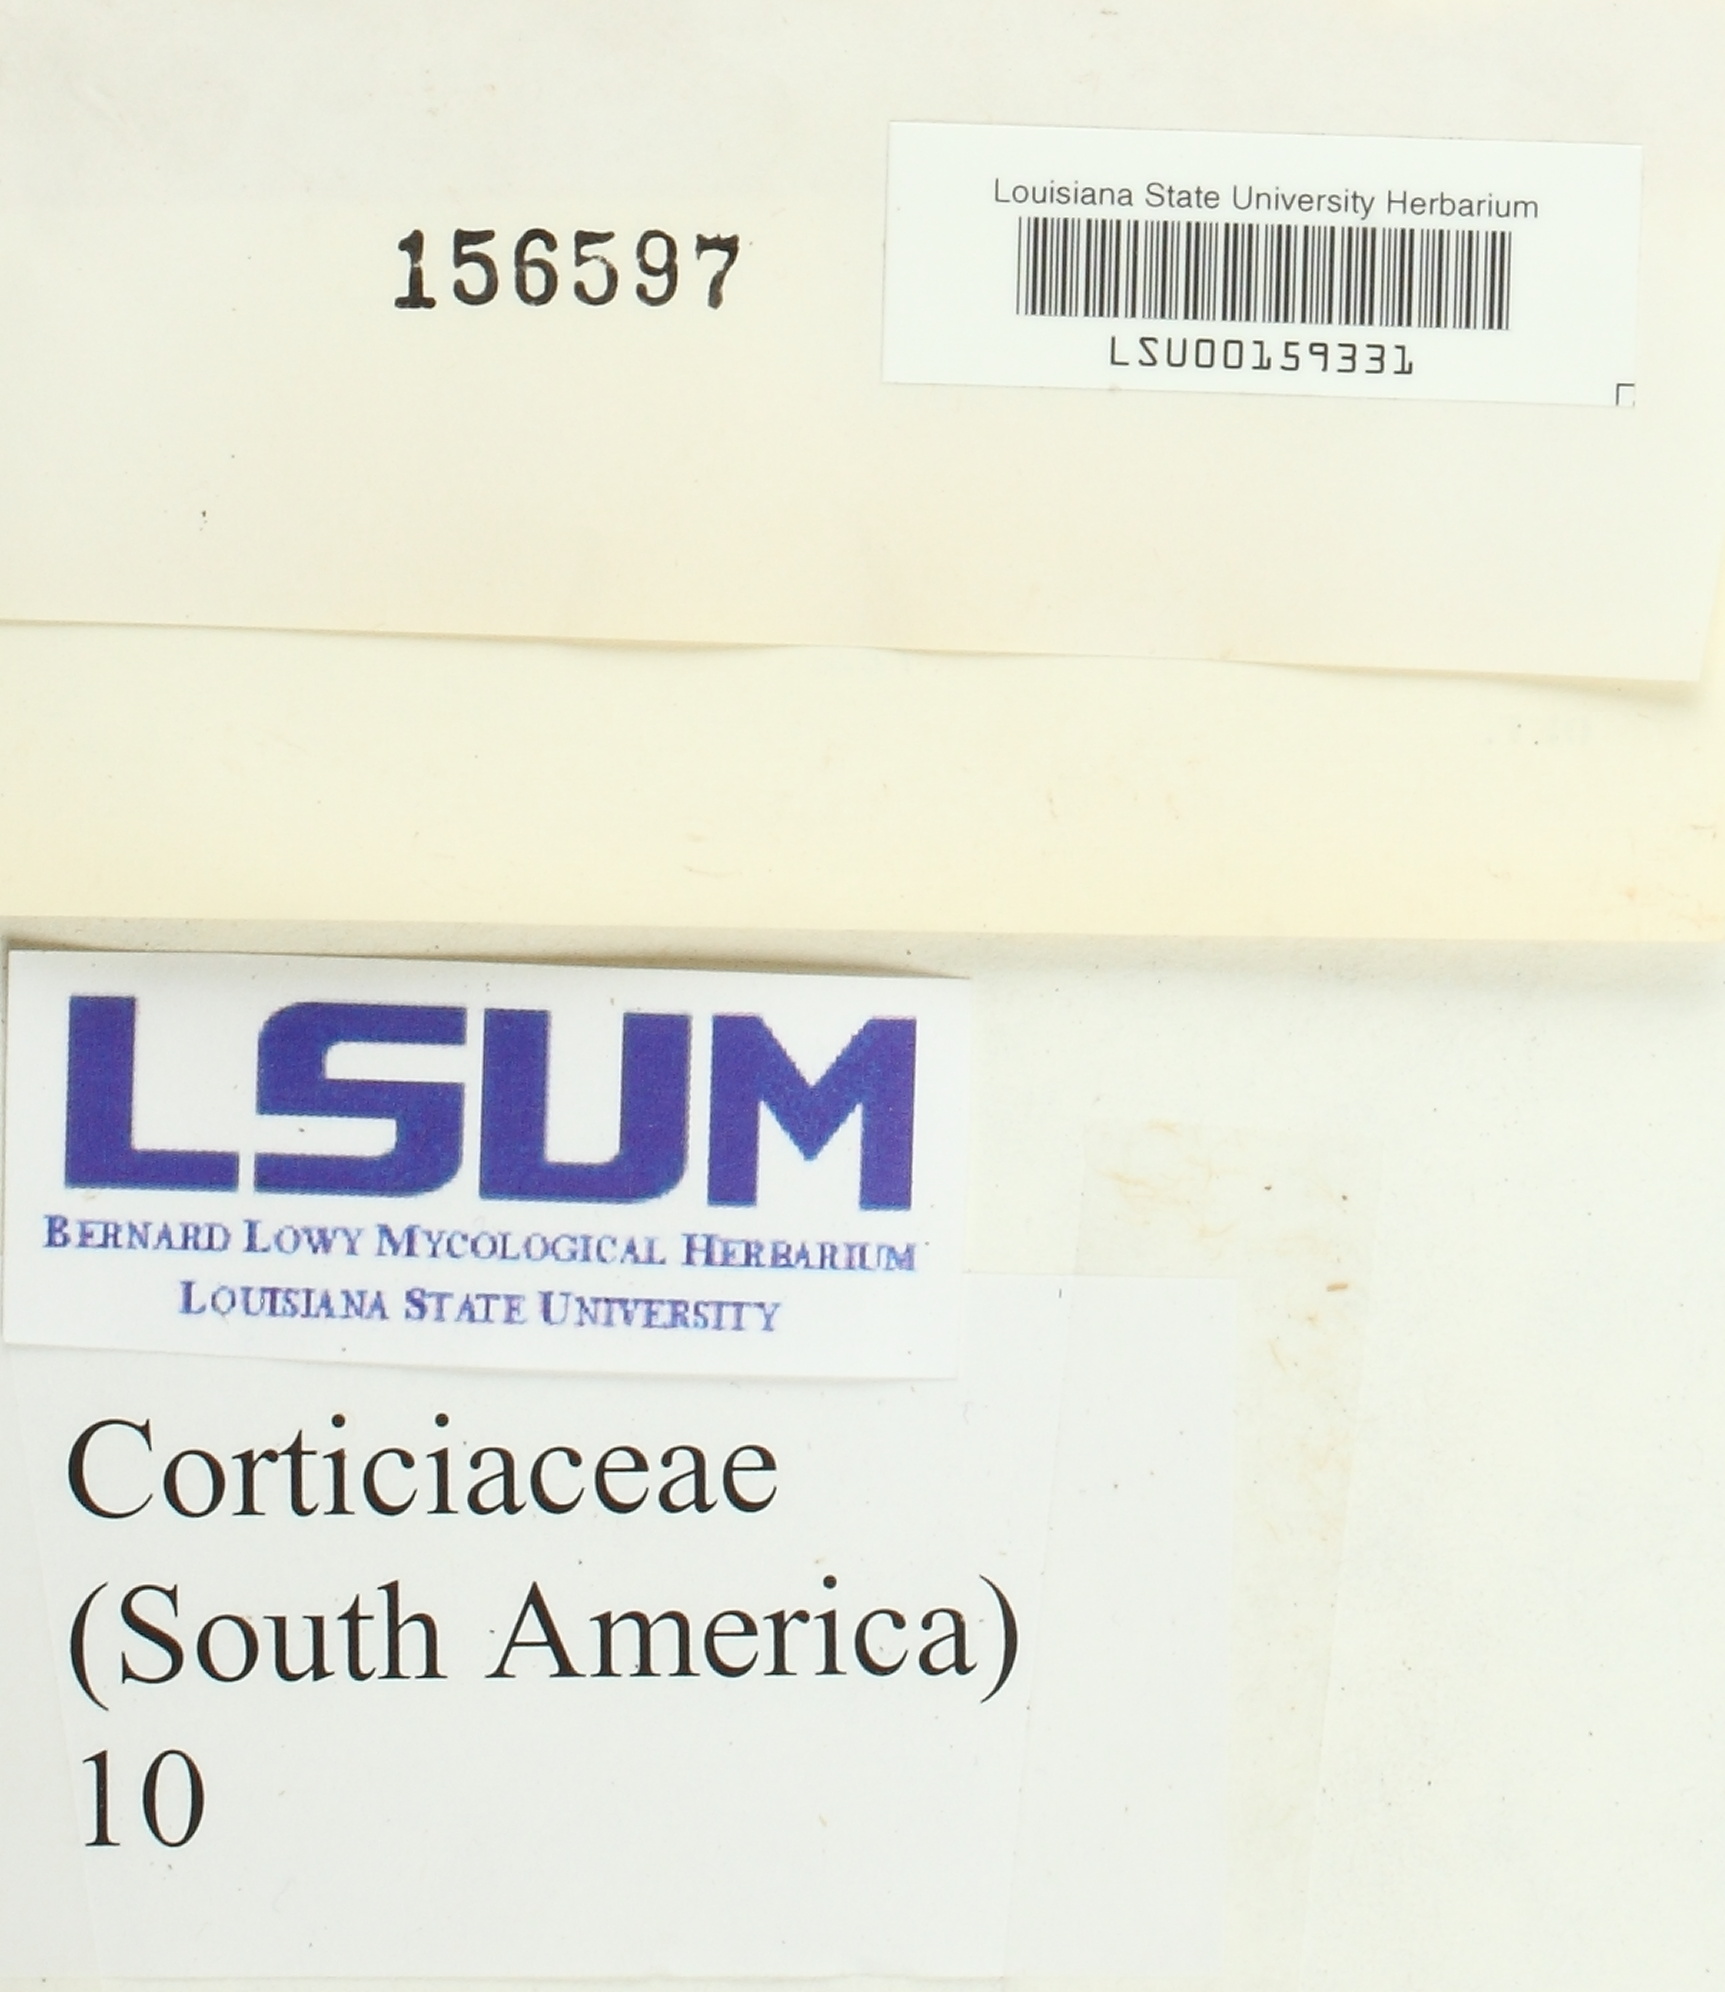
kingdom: Fungi
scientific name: Fungi
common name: Fungi
